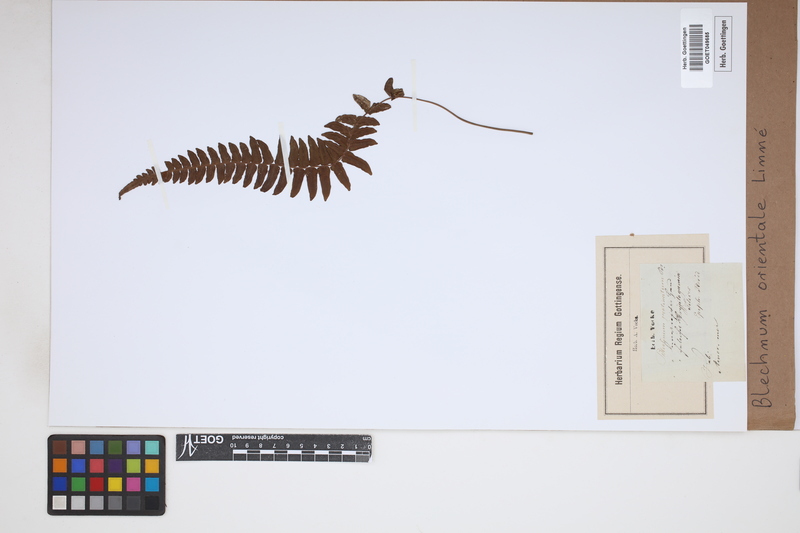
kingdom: Plantae
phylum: Tracheophyta
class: Polypodiopsida
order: Polypodiales
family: Blechnaceae
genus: Blechnopsis
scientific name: Blechnopsis orientalis
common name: Oriental blechnum
